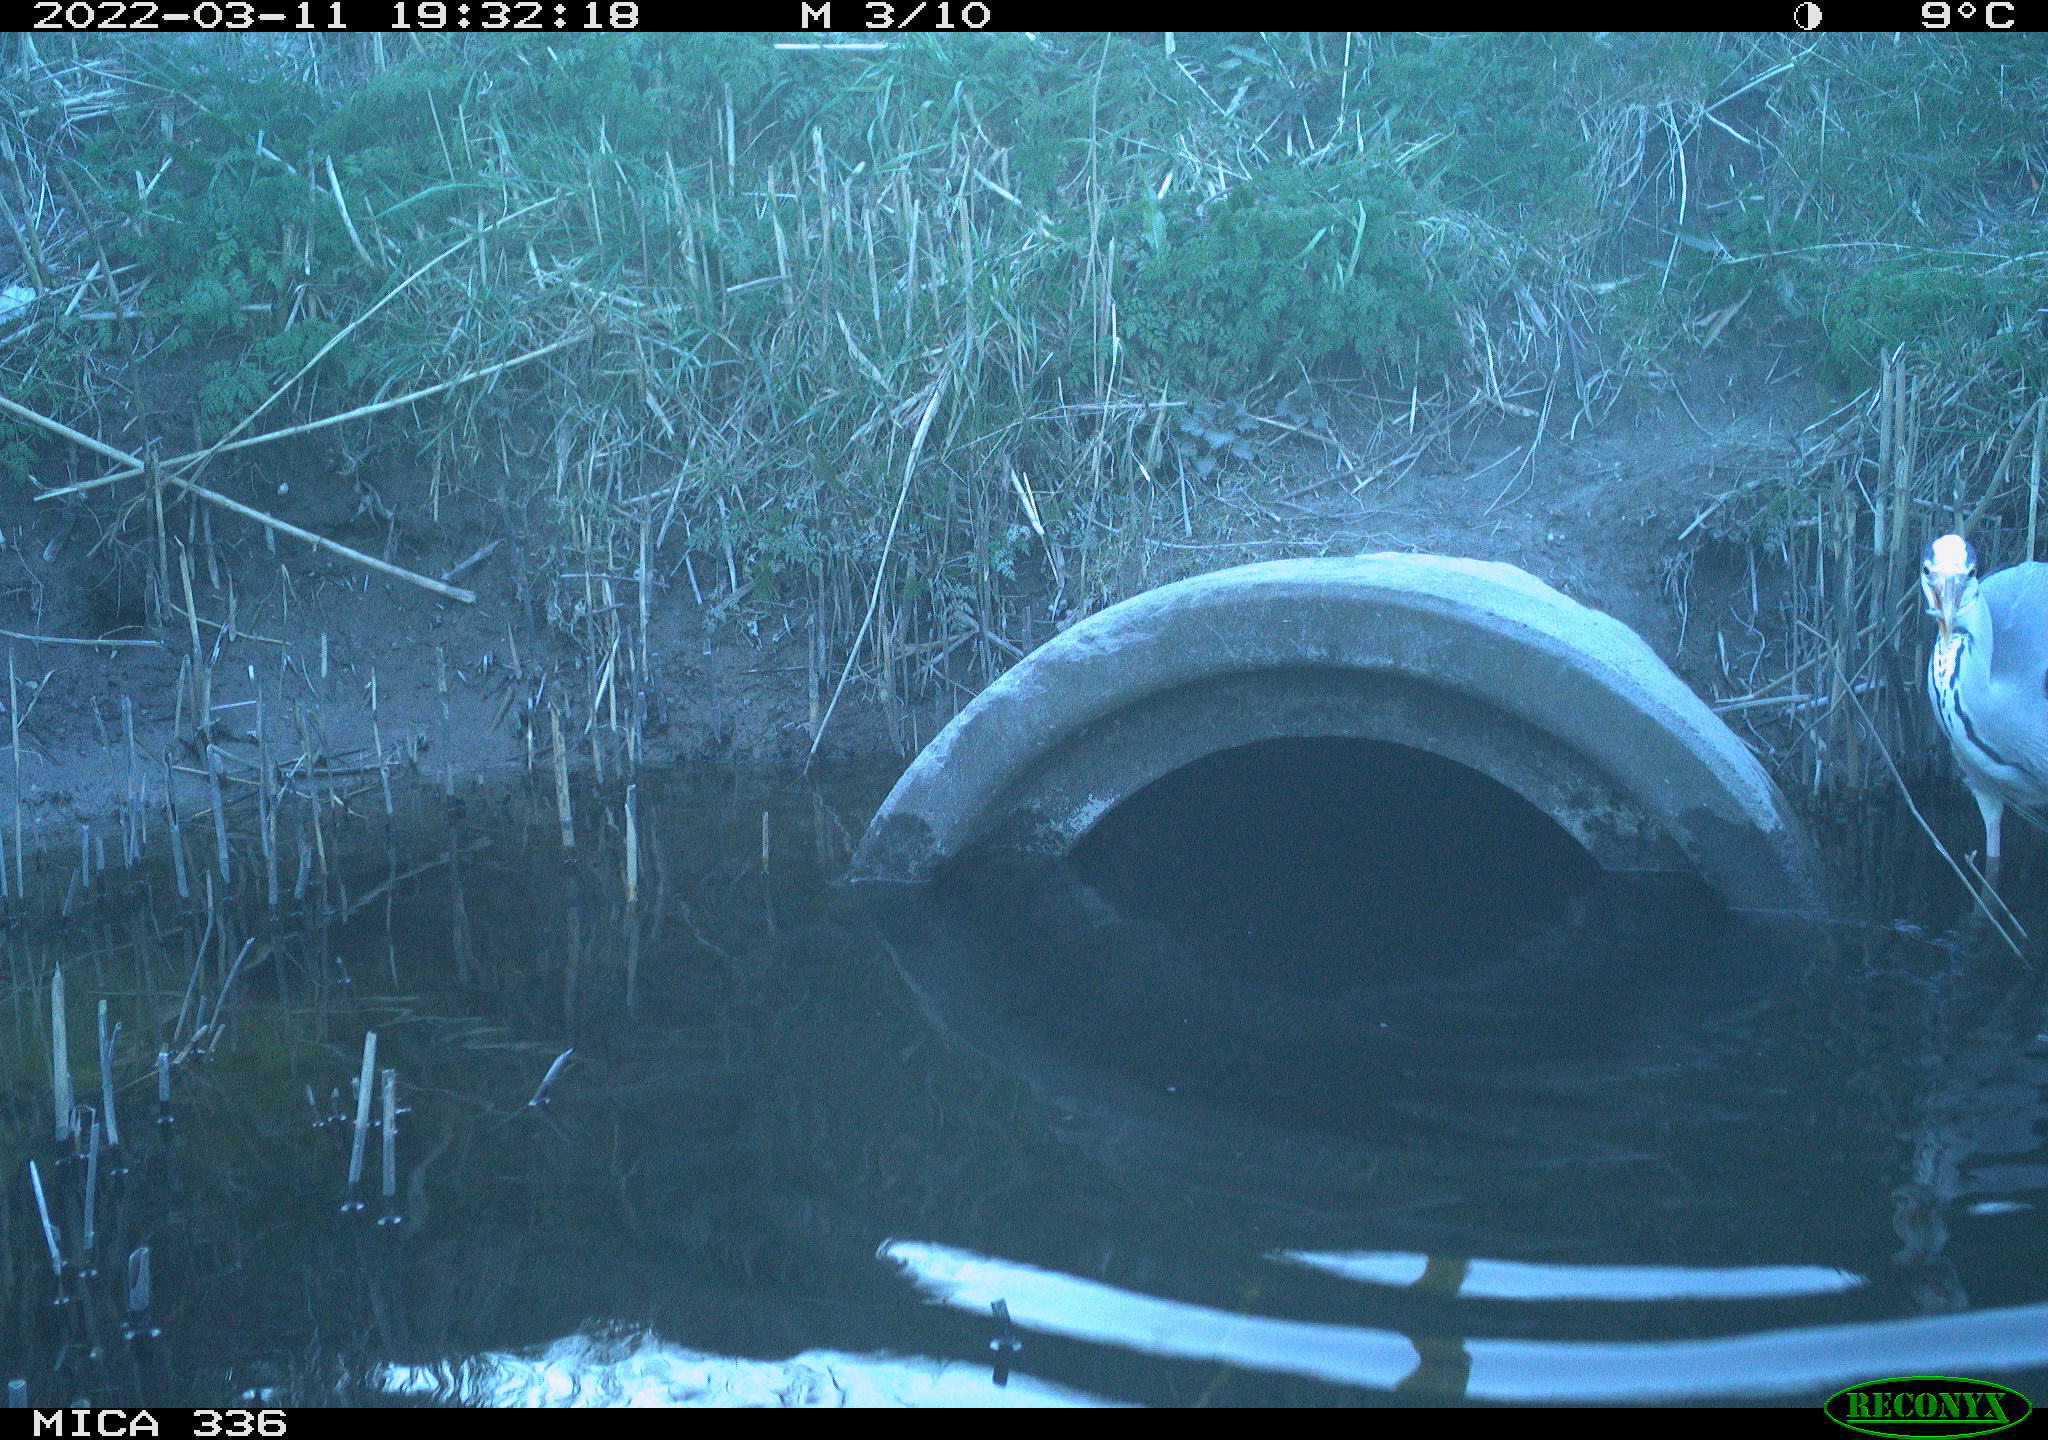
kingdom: Animalia
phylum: Chordata
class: Aves
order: Pelecaniformes
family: Ardeidae
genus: Ardea
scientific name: Ardea cinerea
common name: Grey heron
